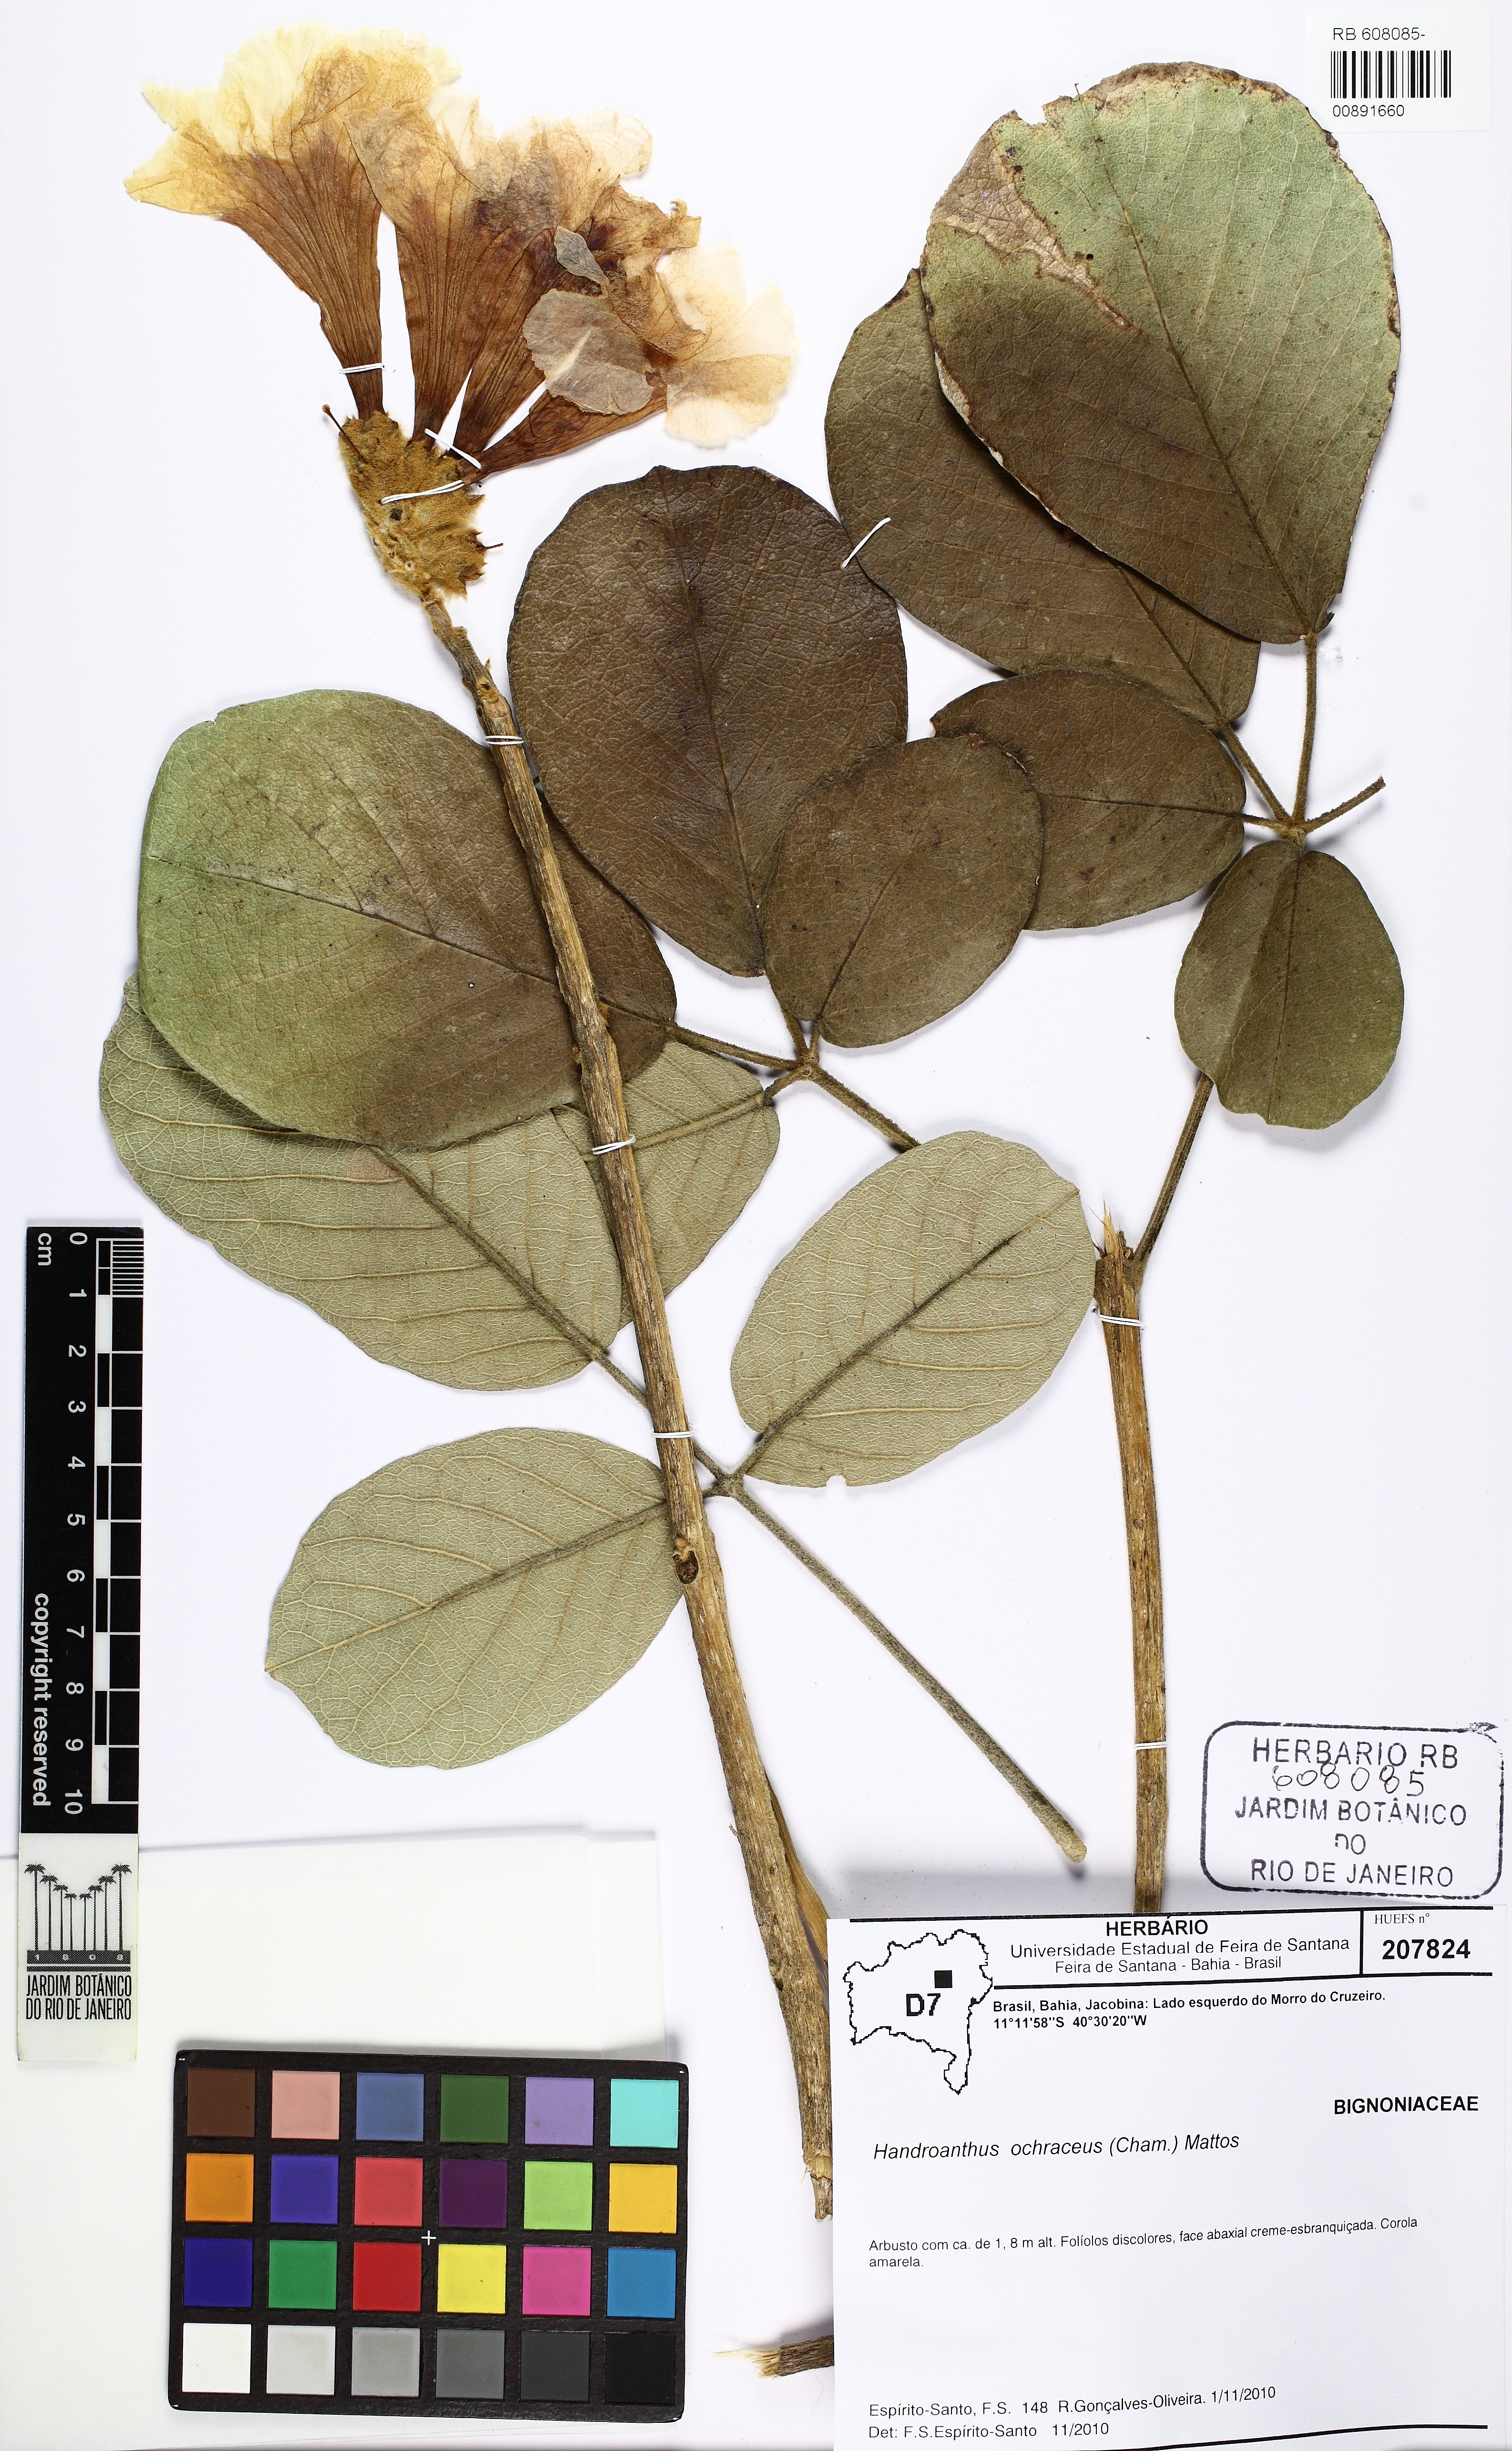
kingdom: Plantae
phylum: Tracheophyta
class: Magnoliopsida
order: Lamiales
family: Bignoniaceae
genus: Handroanthus
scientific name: Handroanthus ochraceus
